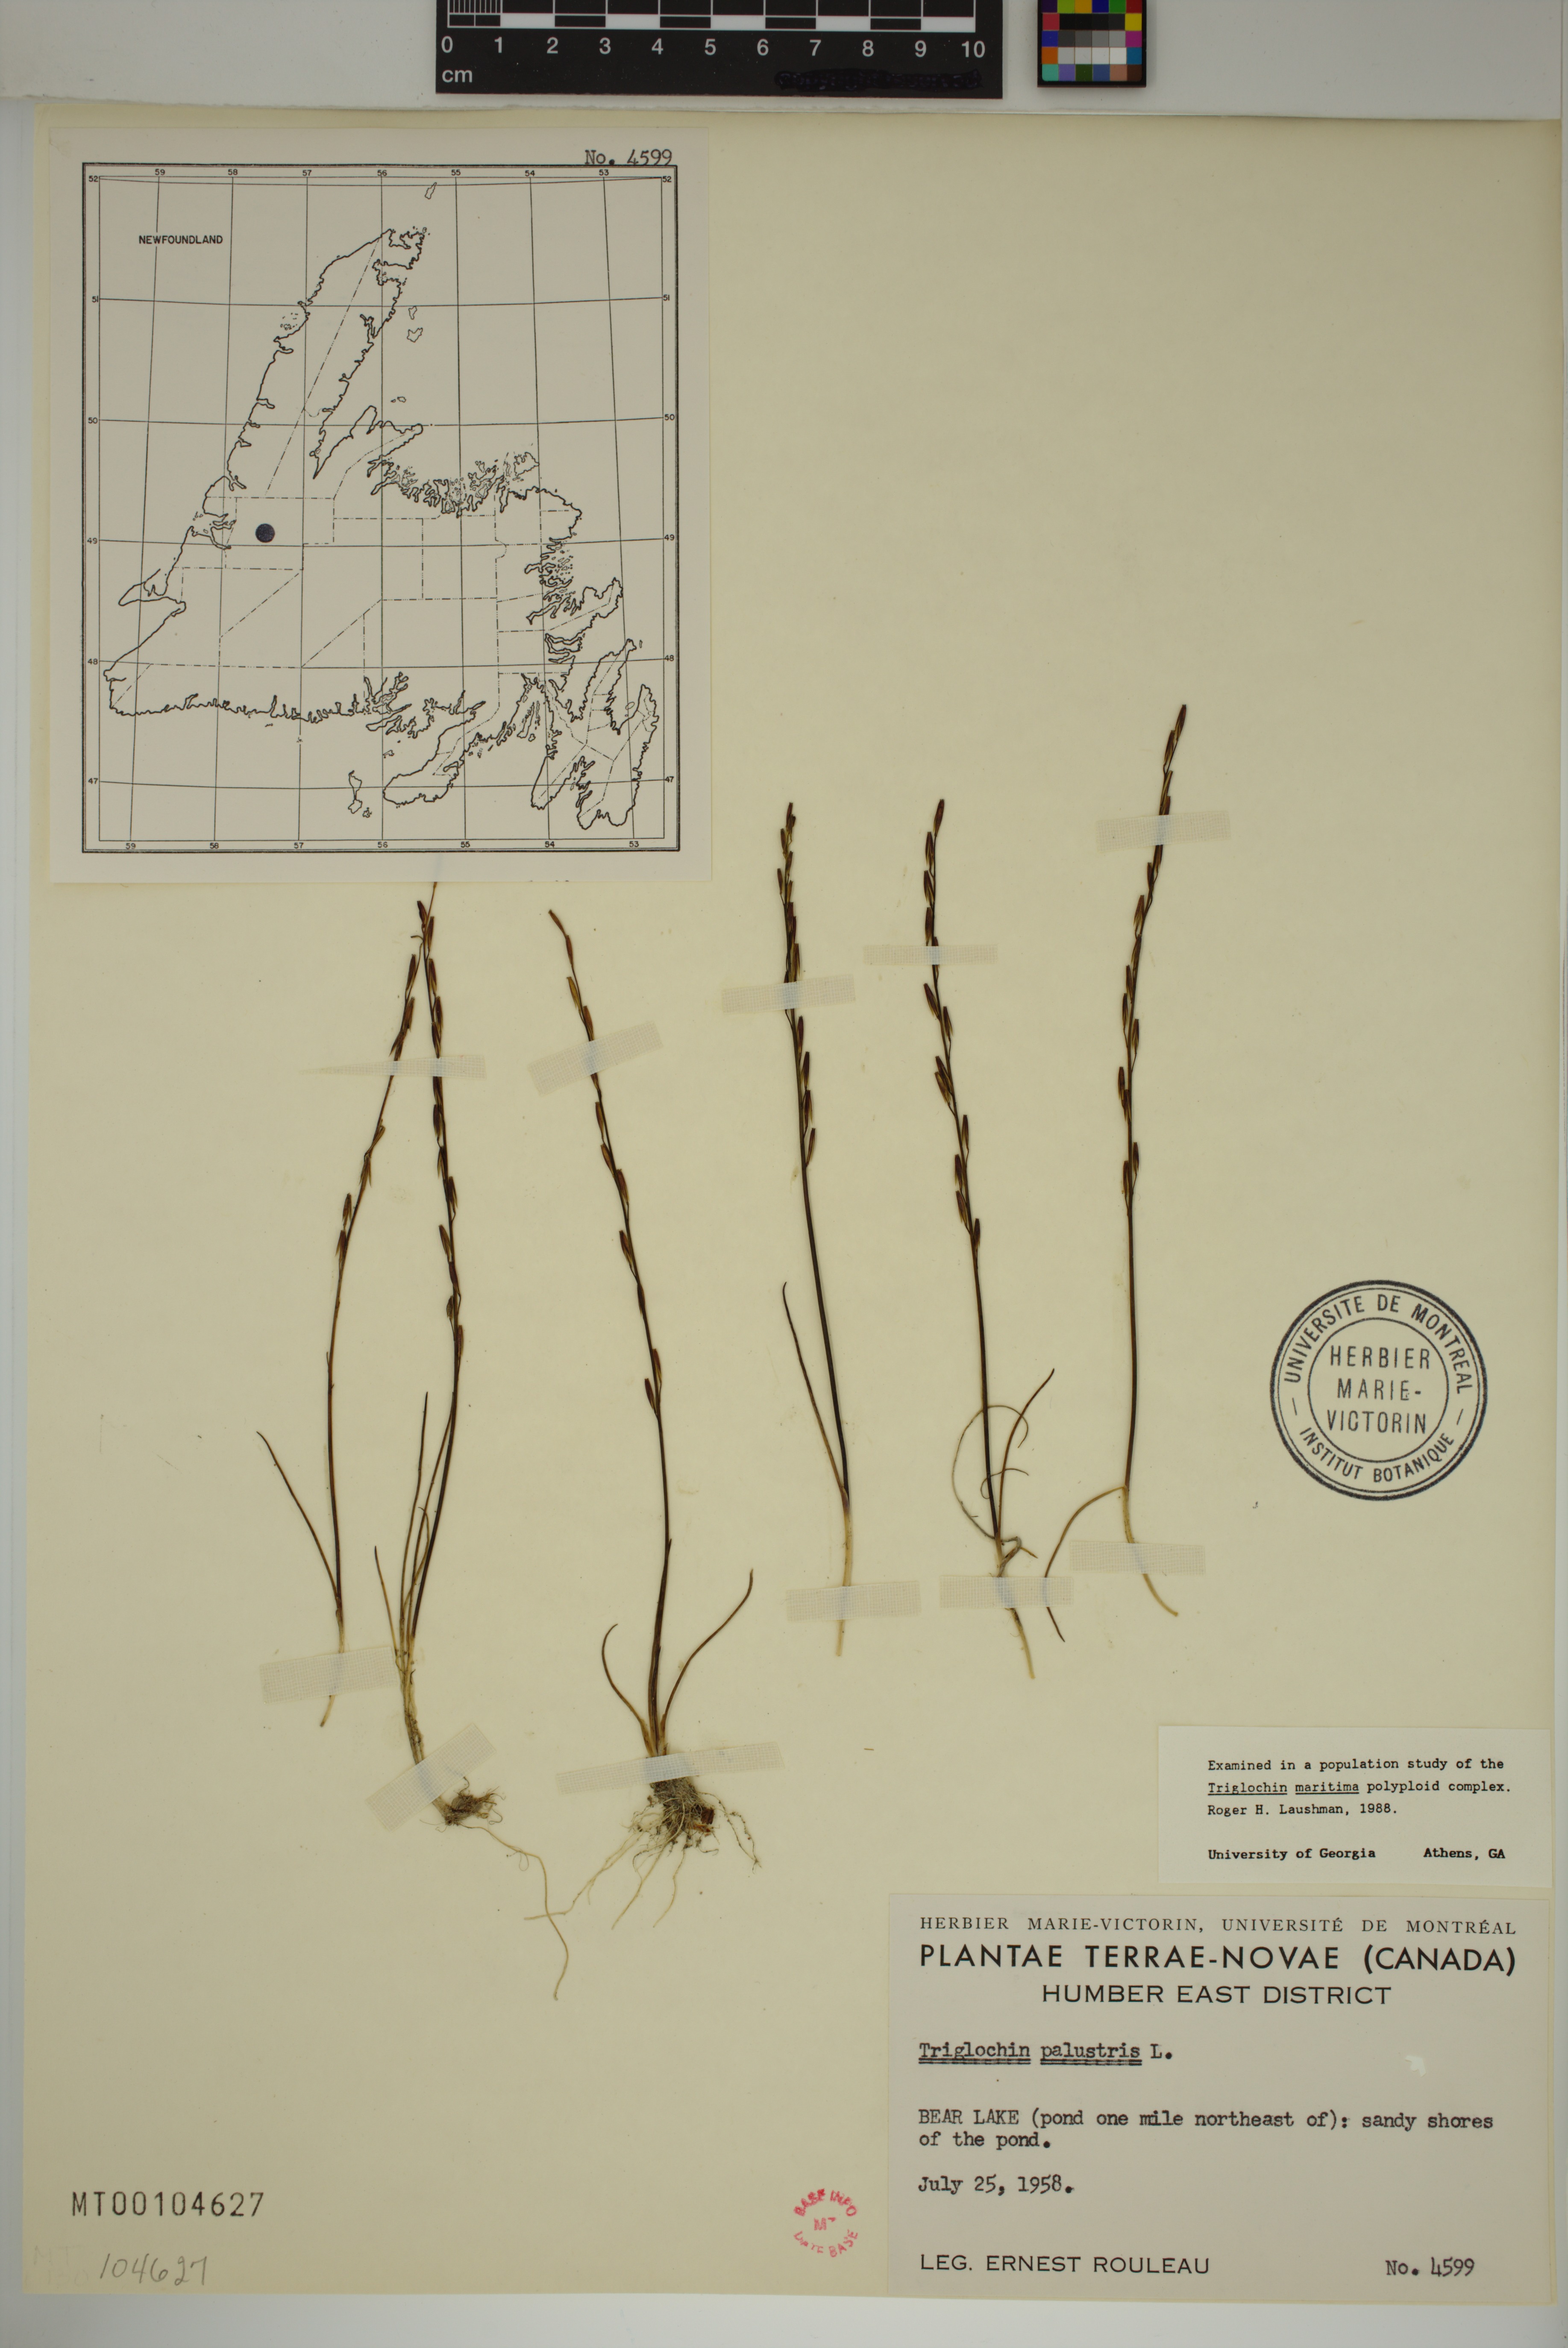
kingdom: Plantae
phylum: Tracheophyta
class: Liliopsida
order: Alismatales
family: Juncaginaceae
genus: Triglochin
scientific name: Triglochin palustris
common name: Marsh arrowgrass
